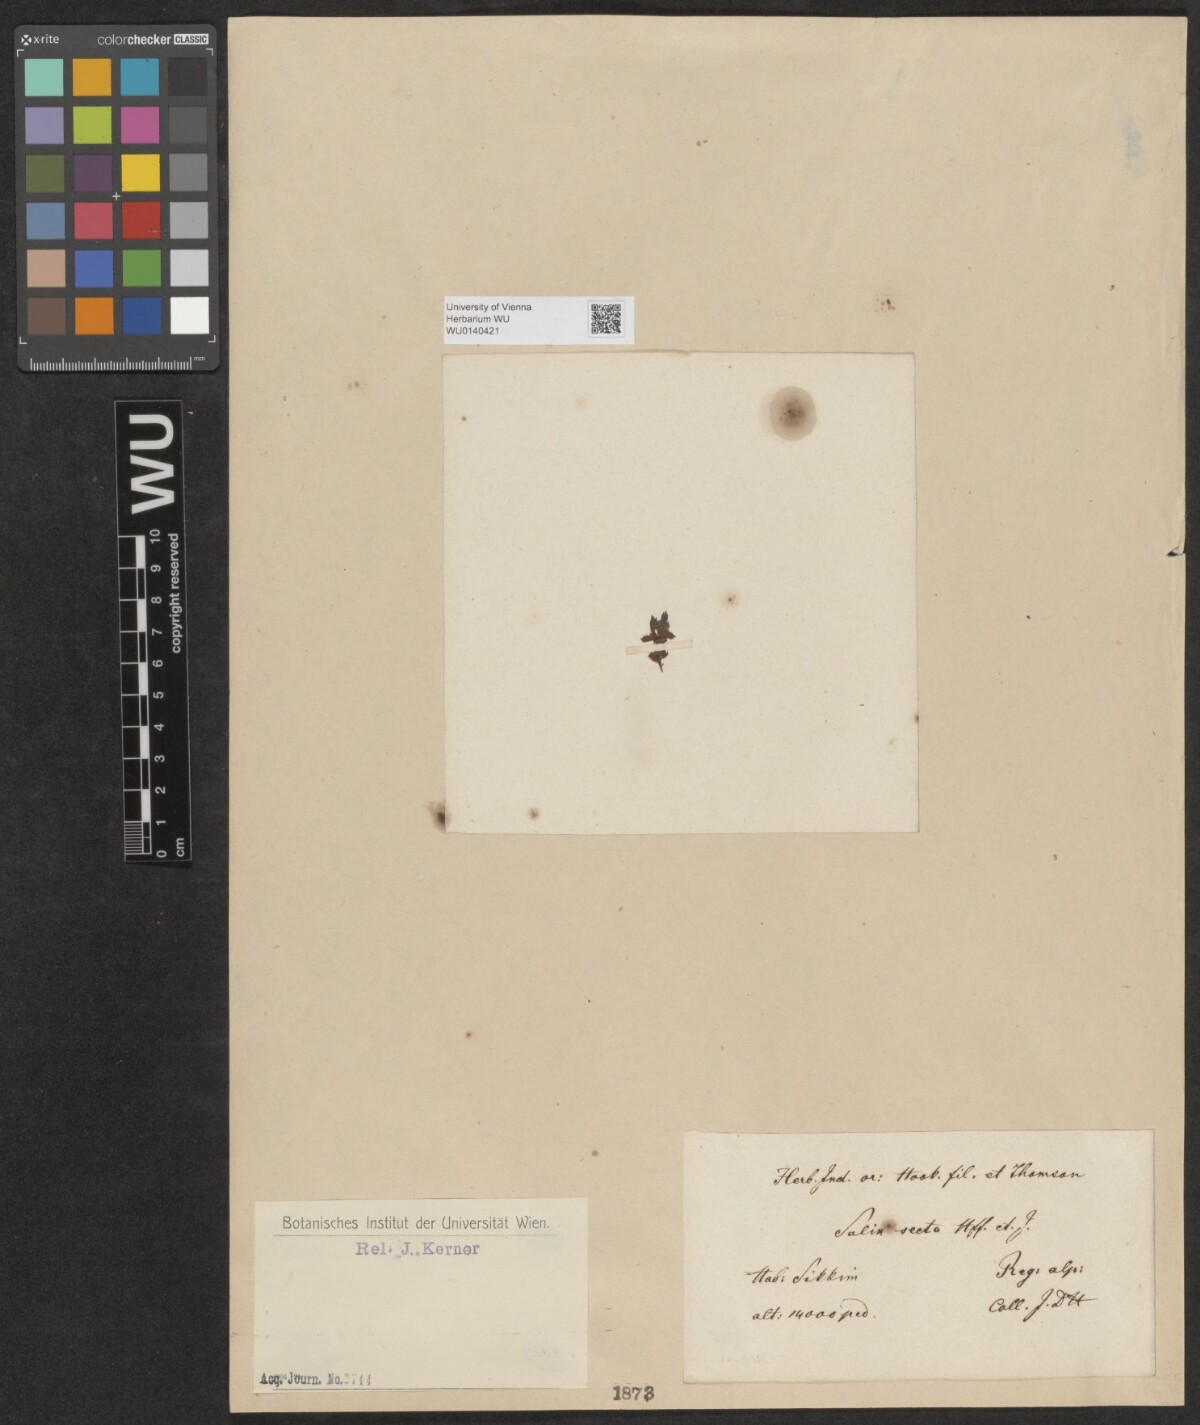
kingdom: Plantae
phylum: Tracheophyta
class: Magnoliopsida
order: Malpighiales
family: Salicaceae
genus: Salix
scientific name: Salix oreophila
